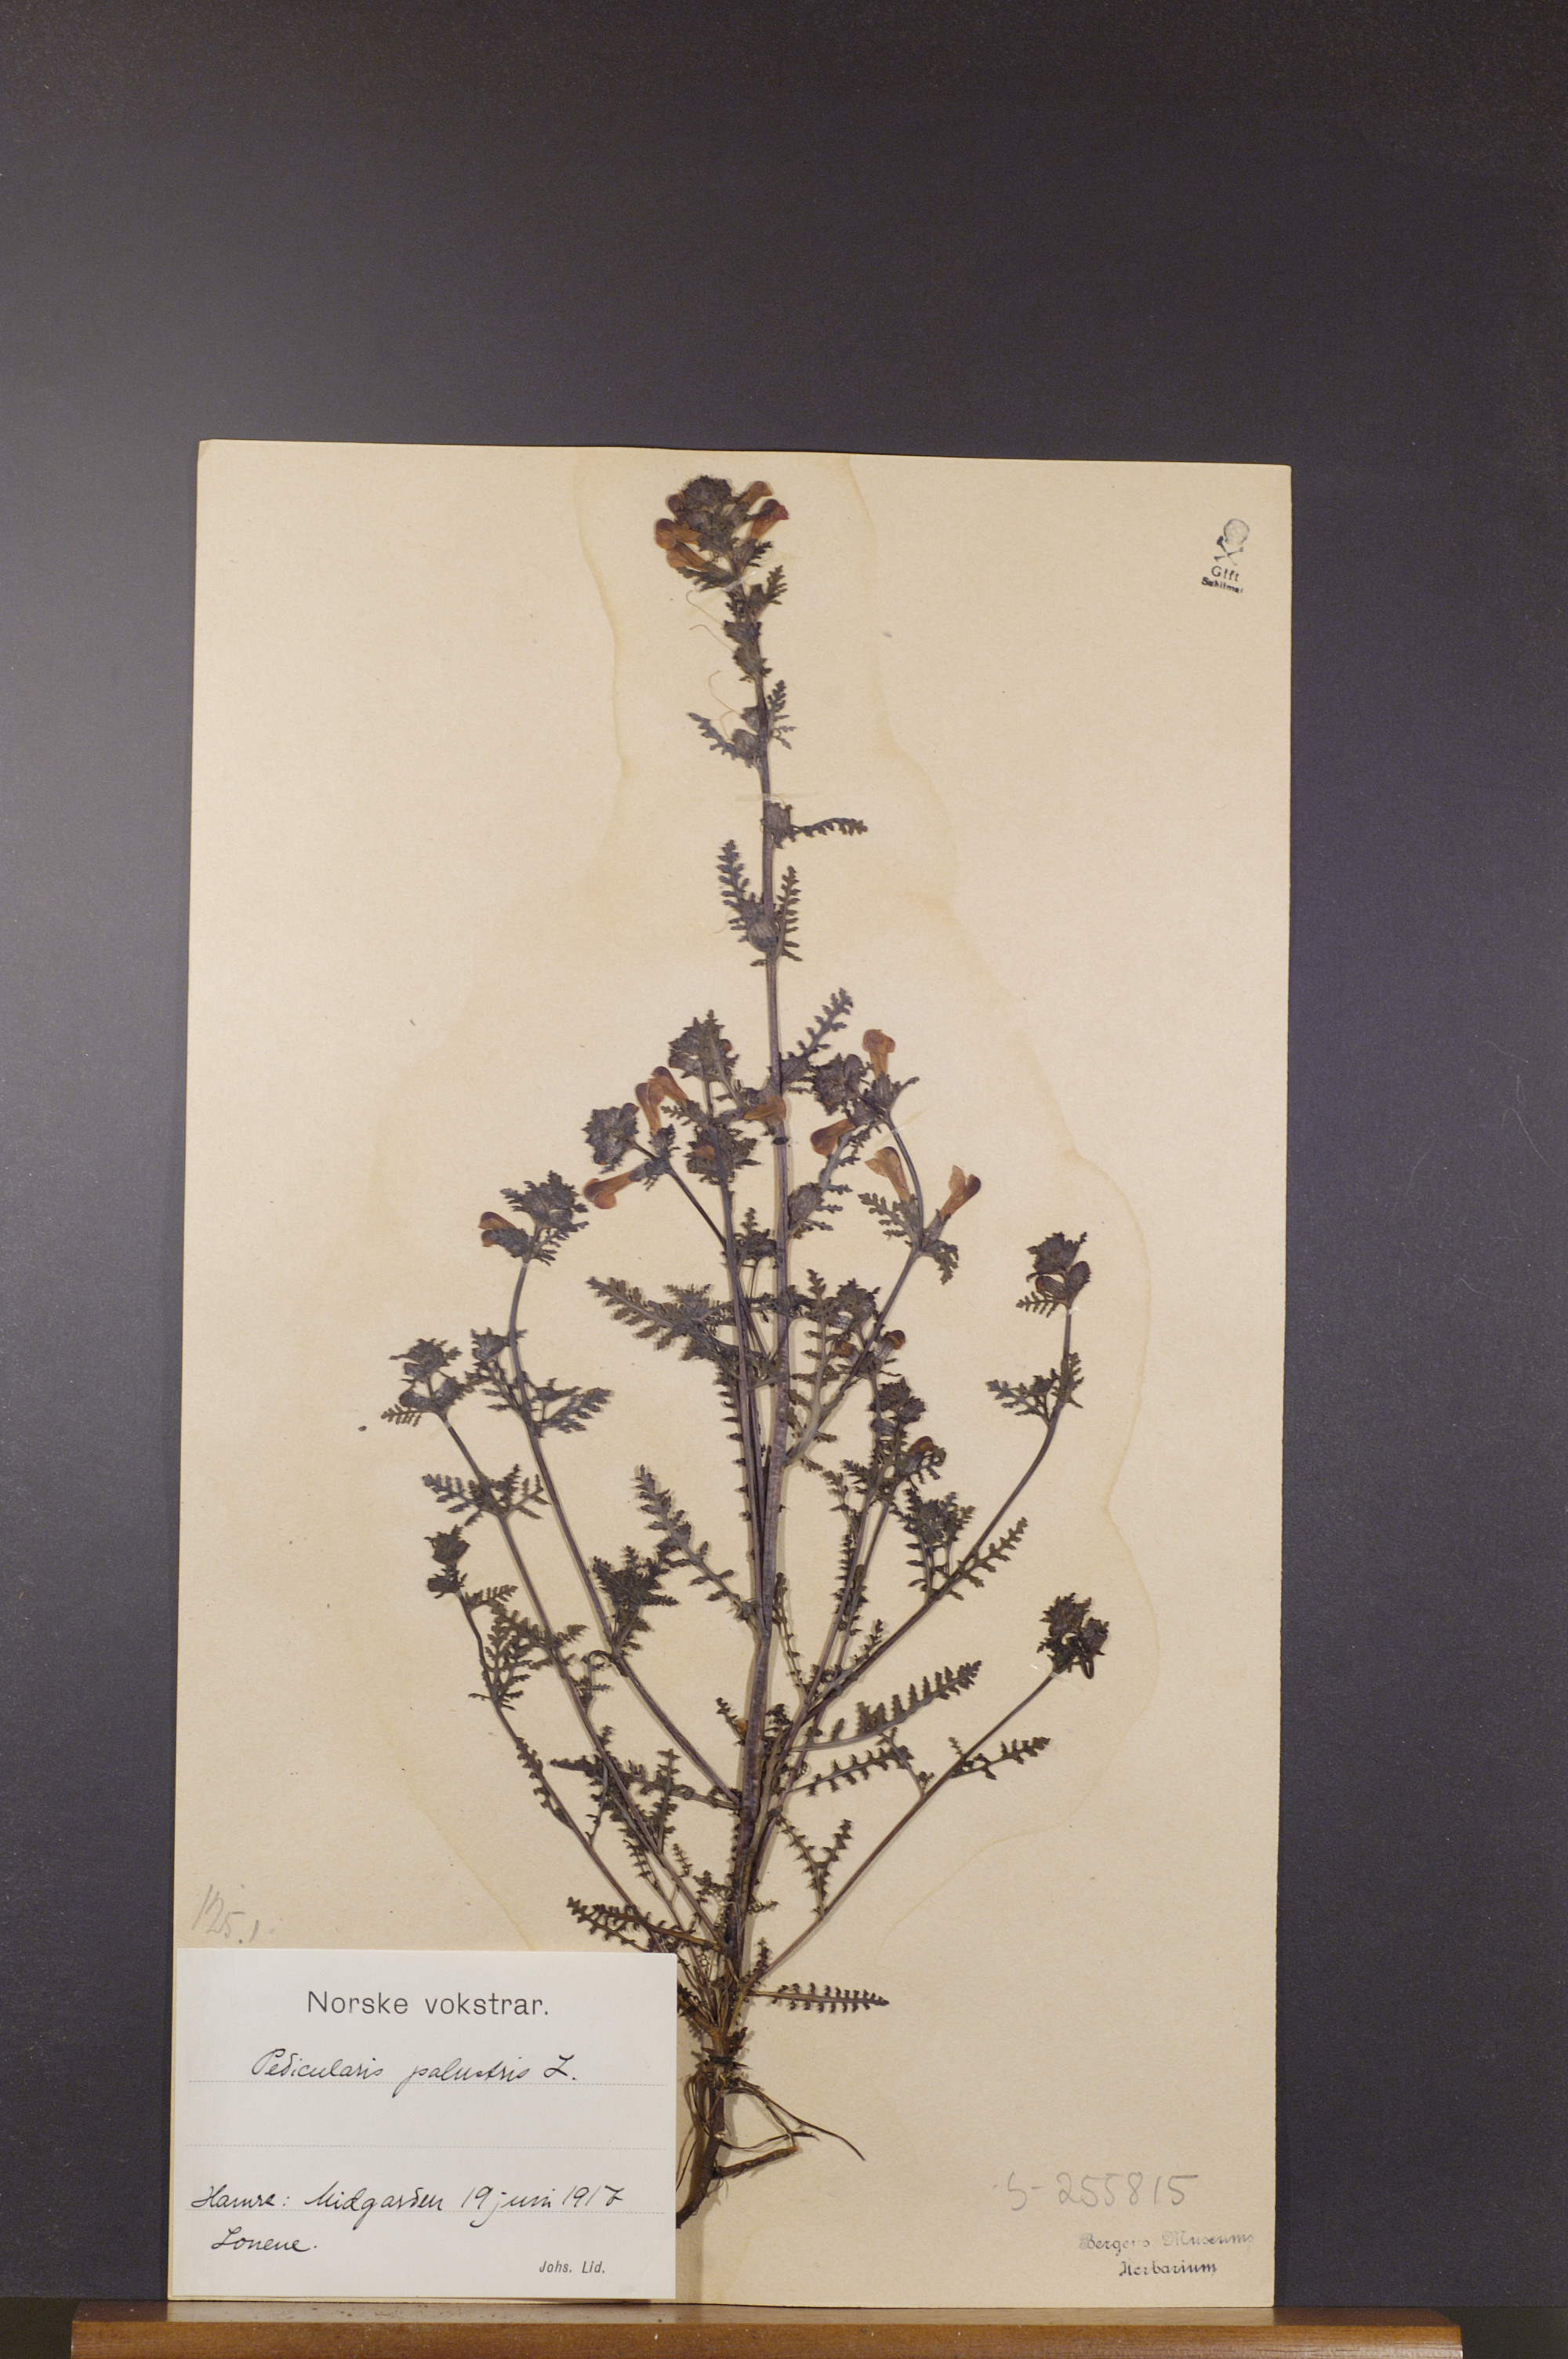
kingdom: Plantae
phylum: Tracheophyta
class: Magnoliopsida
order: Lamiales
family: Orobanchaceae
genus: Pedicularis
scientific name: Pedicularis palustris
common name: Marsh lousewort
